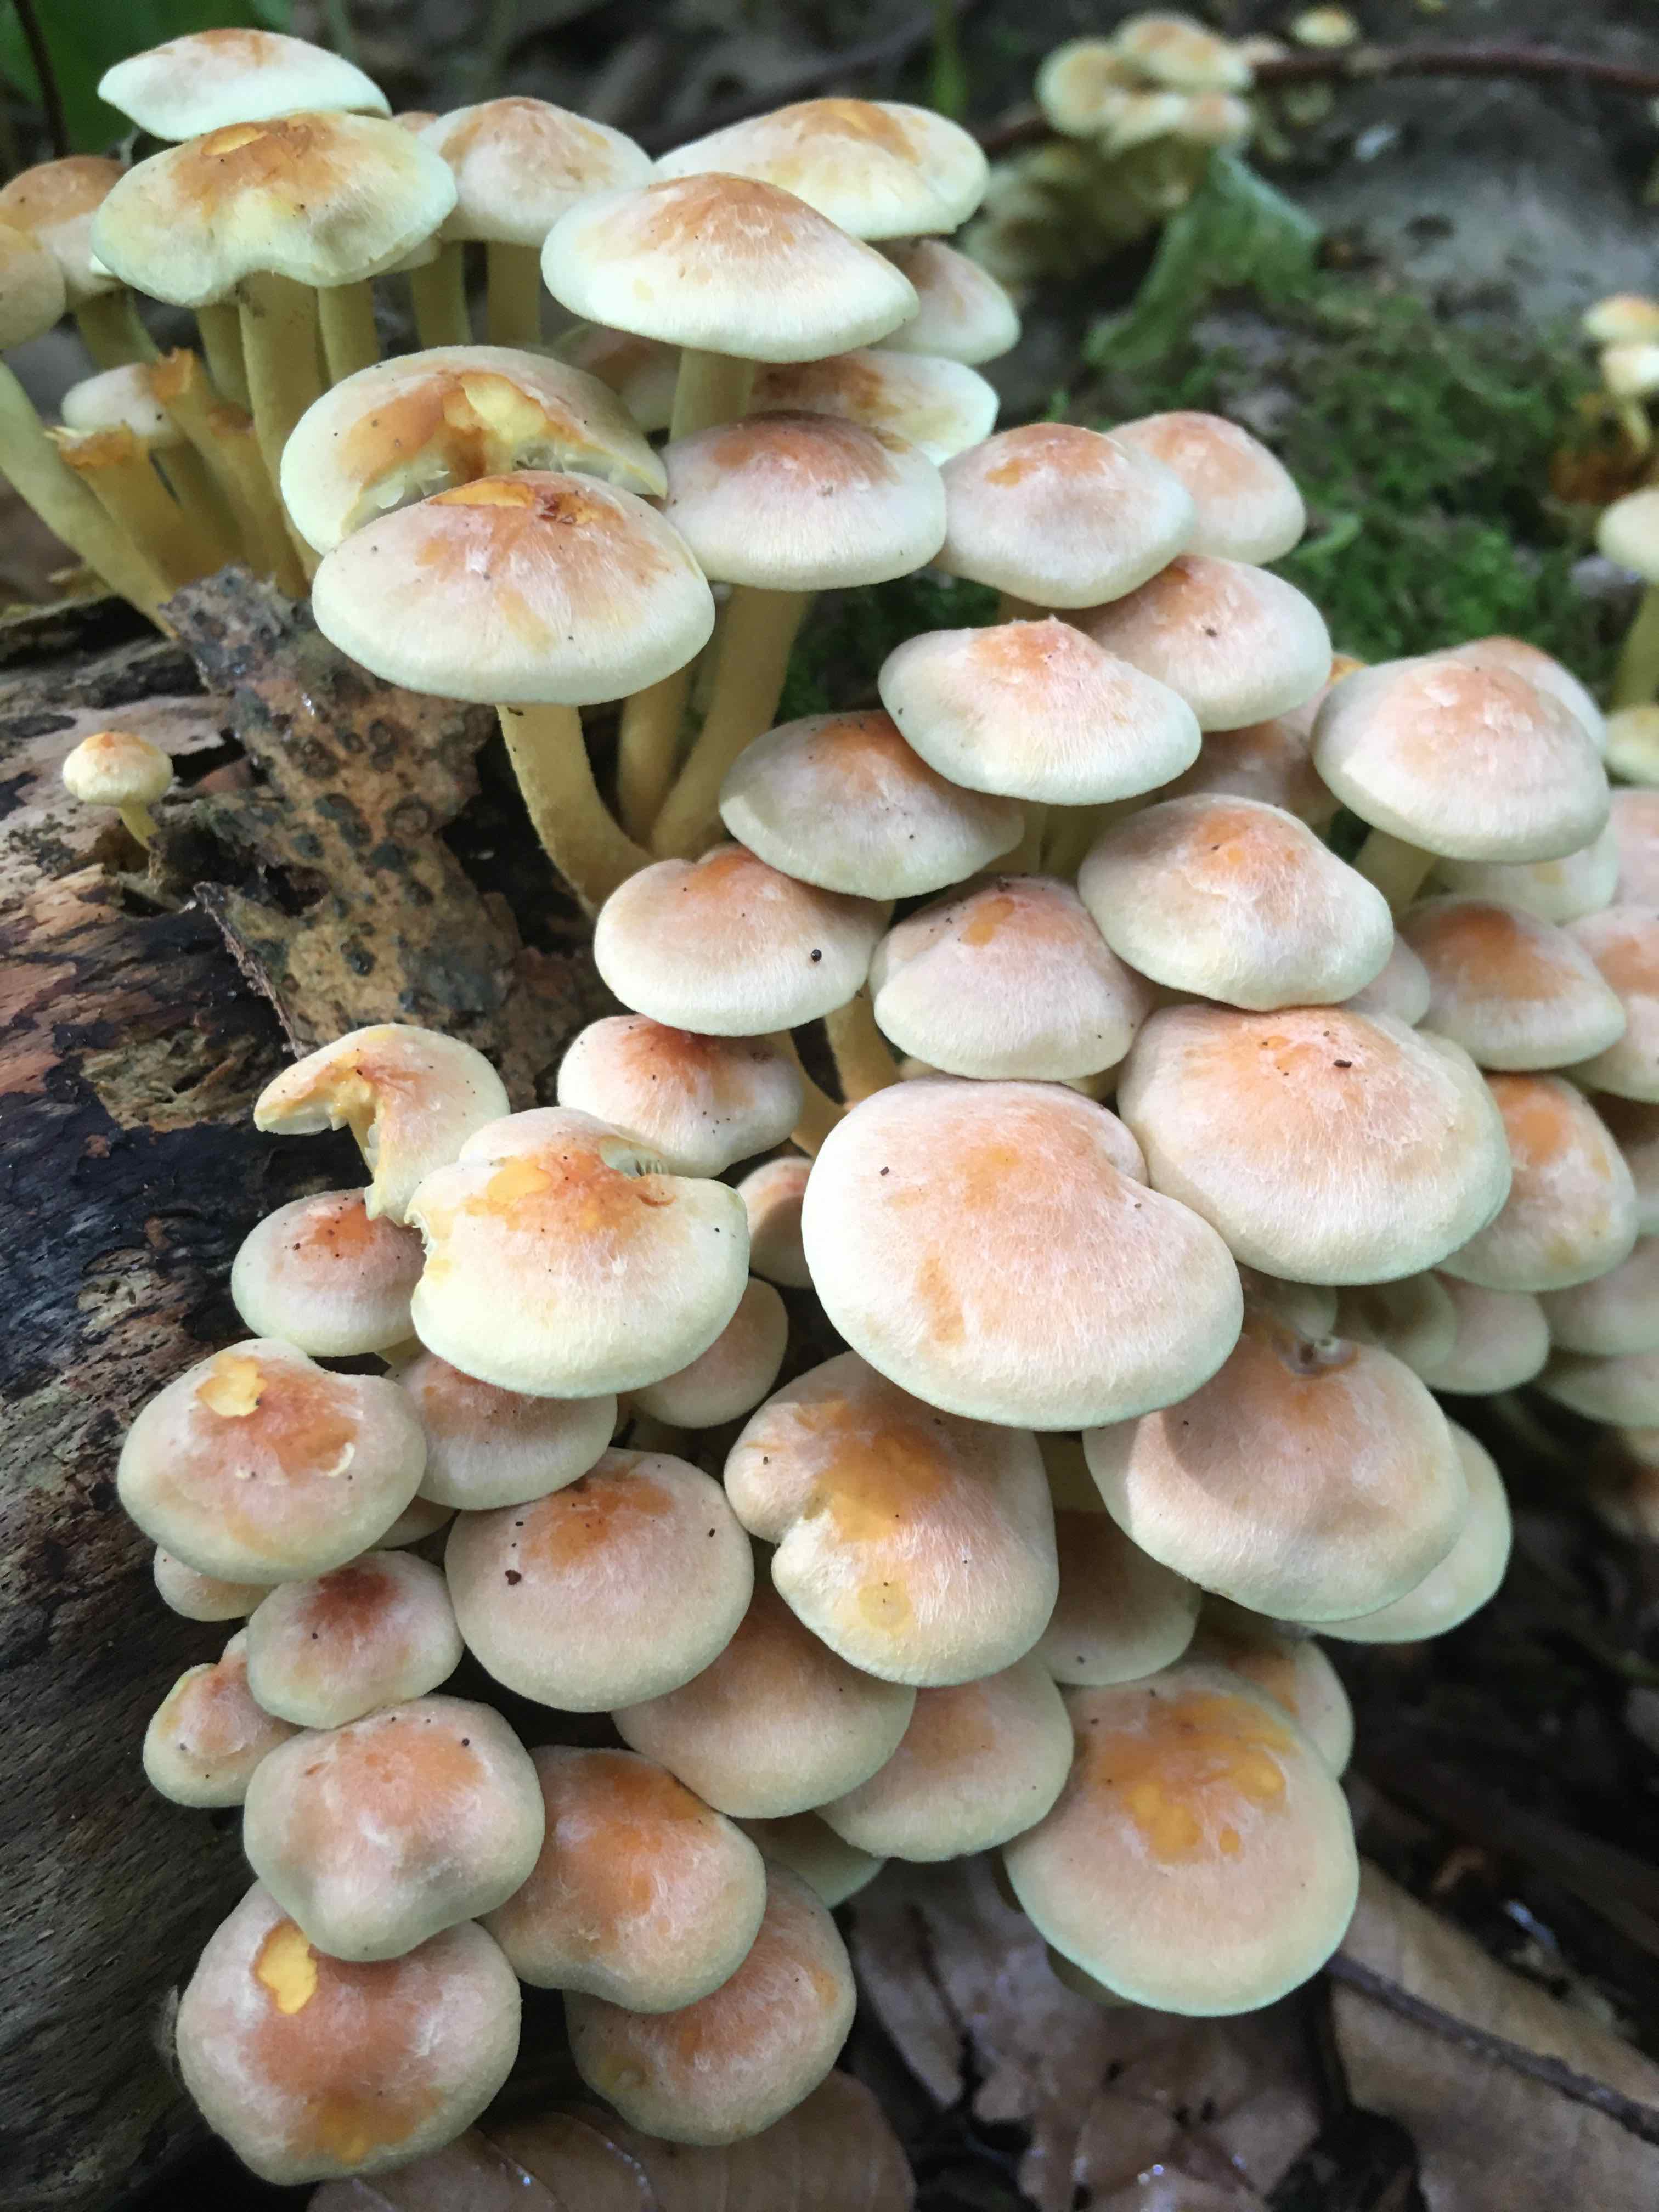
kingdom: Fungi
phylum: Basidiomycota
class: Agaricomycetes
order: Agaricales
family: Strophariaceae
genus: Hypholoma
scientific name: Hypholoma fasciculare
